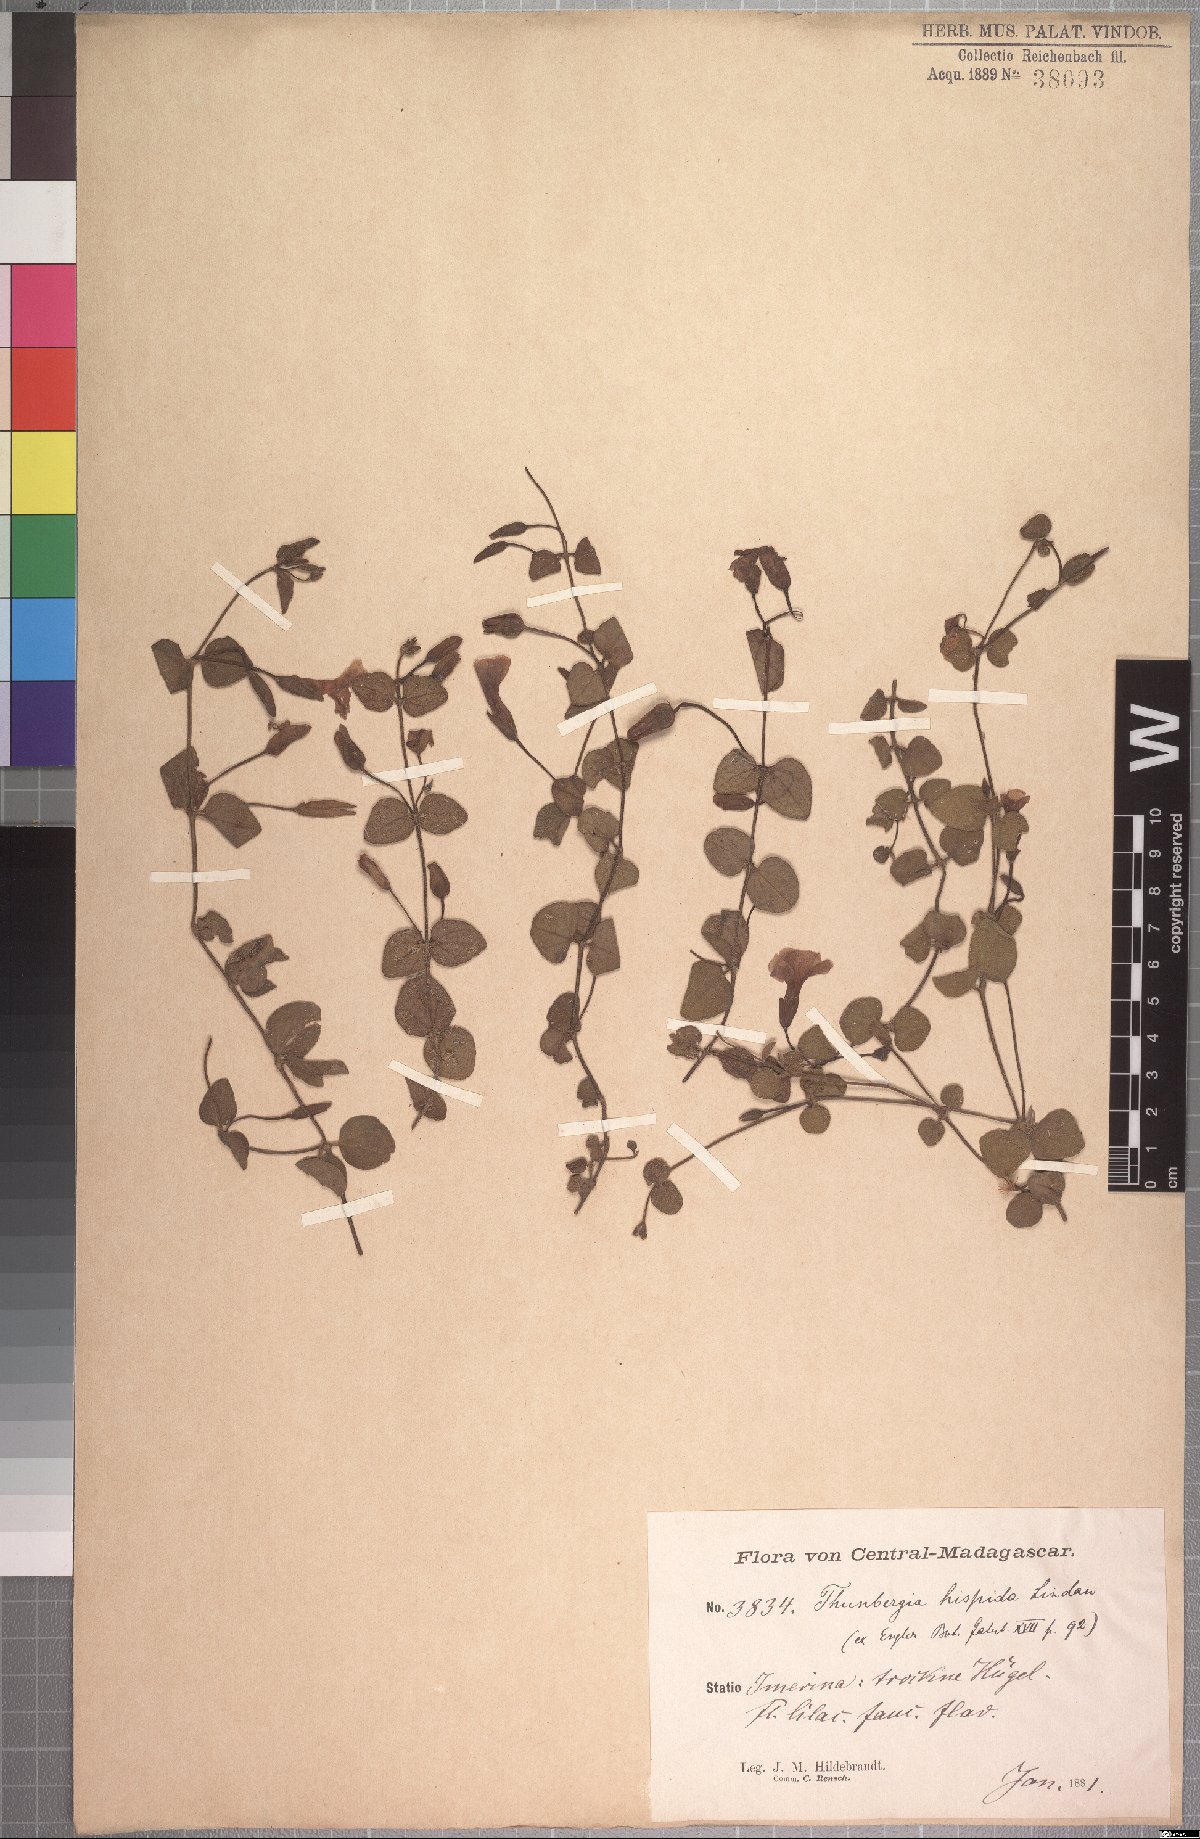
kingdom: Plantae
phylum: Tracheophyta
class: Magnoliopsida
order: Lamiales
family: Acanthaceae
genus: Thunbergia
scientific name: Thunbergia cyanea
